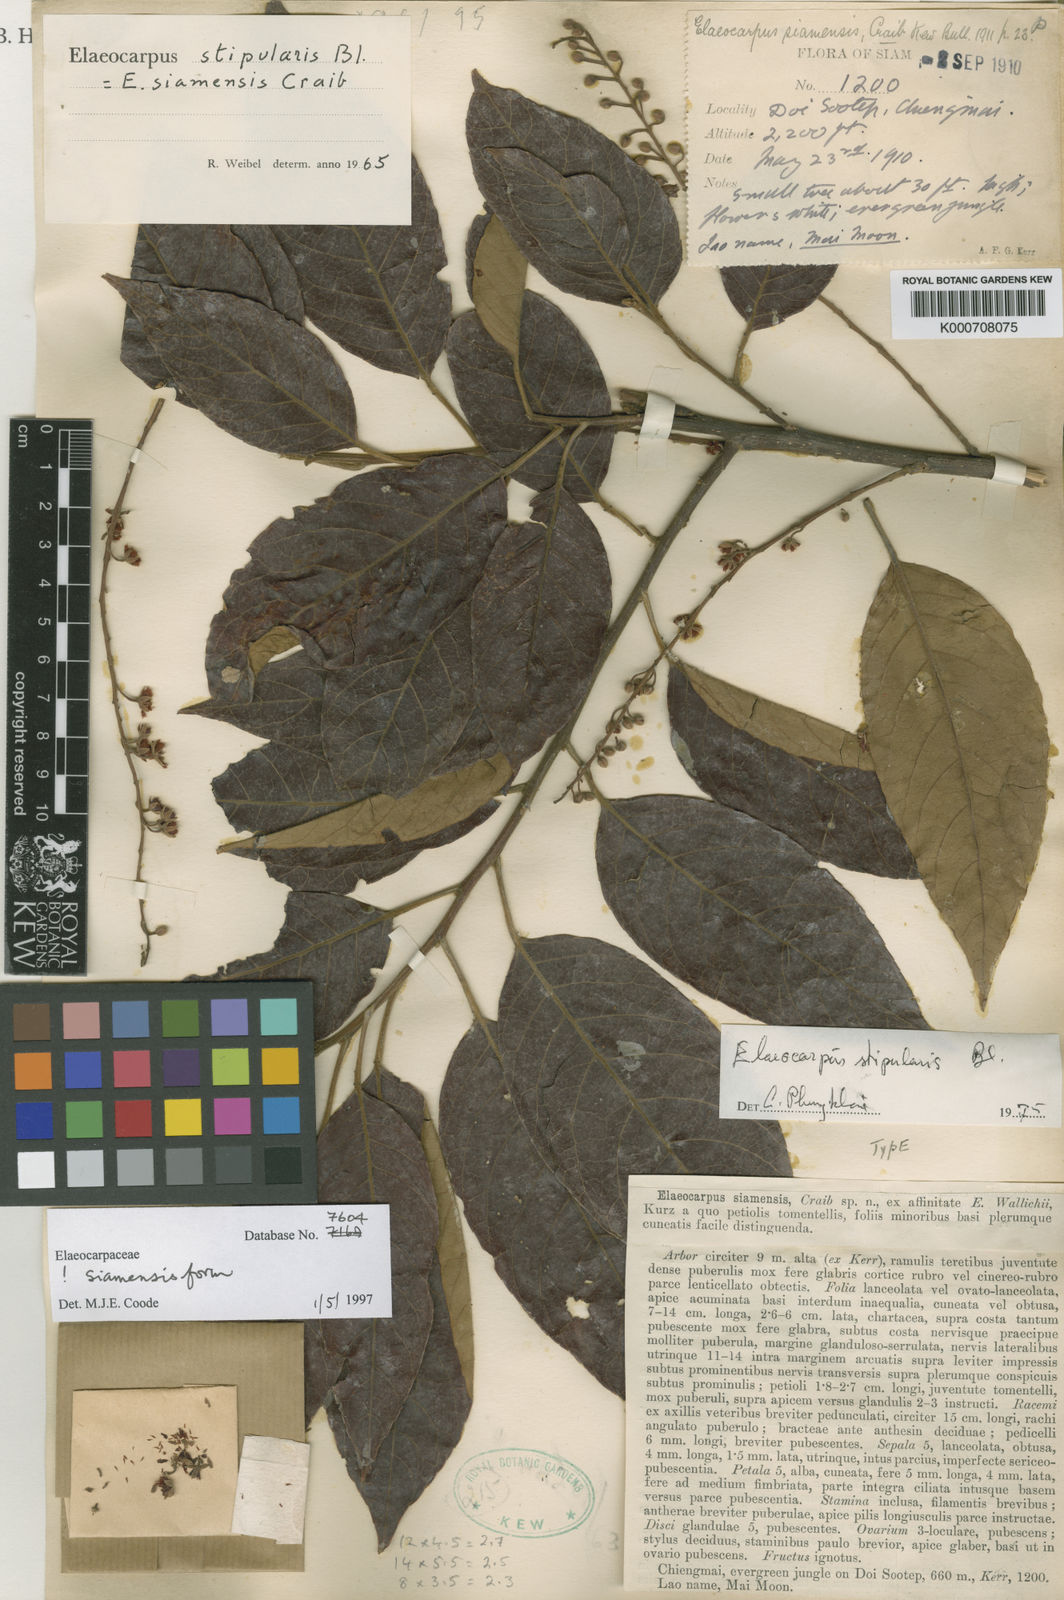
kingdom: Plantae
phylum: Tracheophyta
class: Magnoliopsida
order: Oxalidales
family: Elaeocarpaceae
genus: Elaeocarpus
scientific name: Elaeocarpus stipularis
